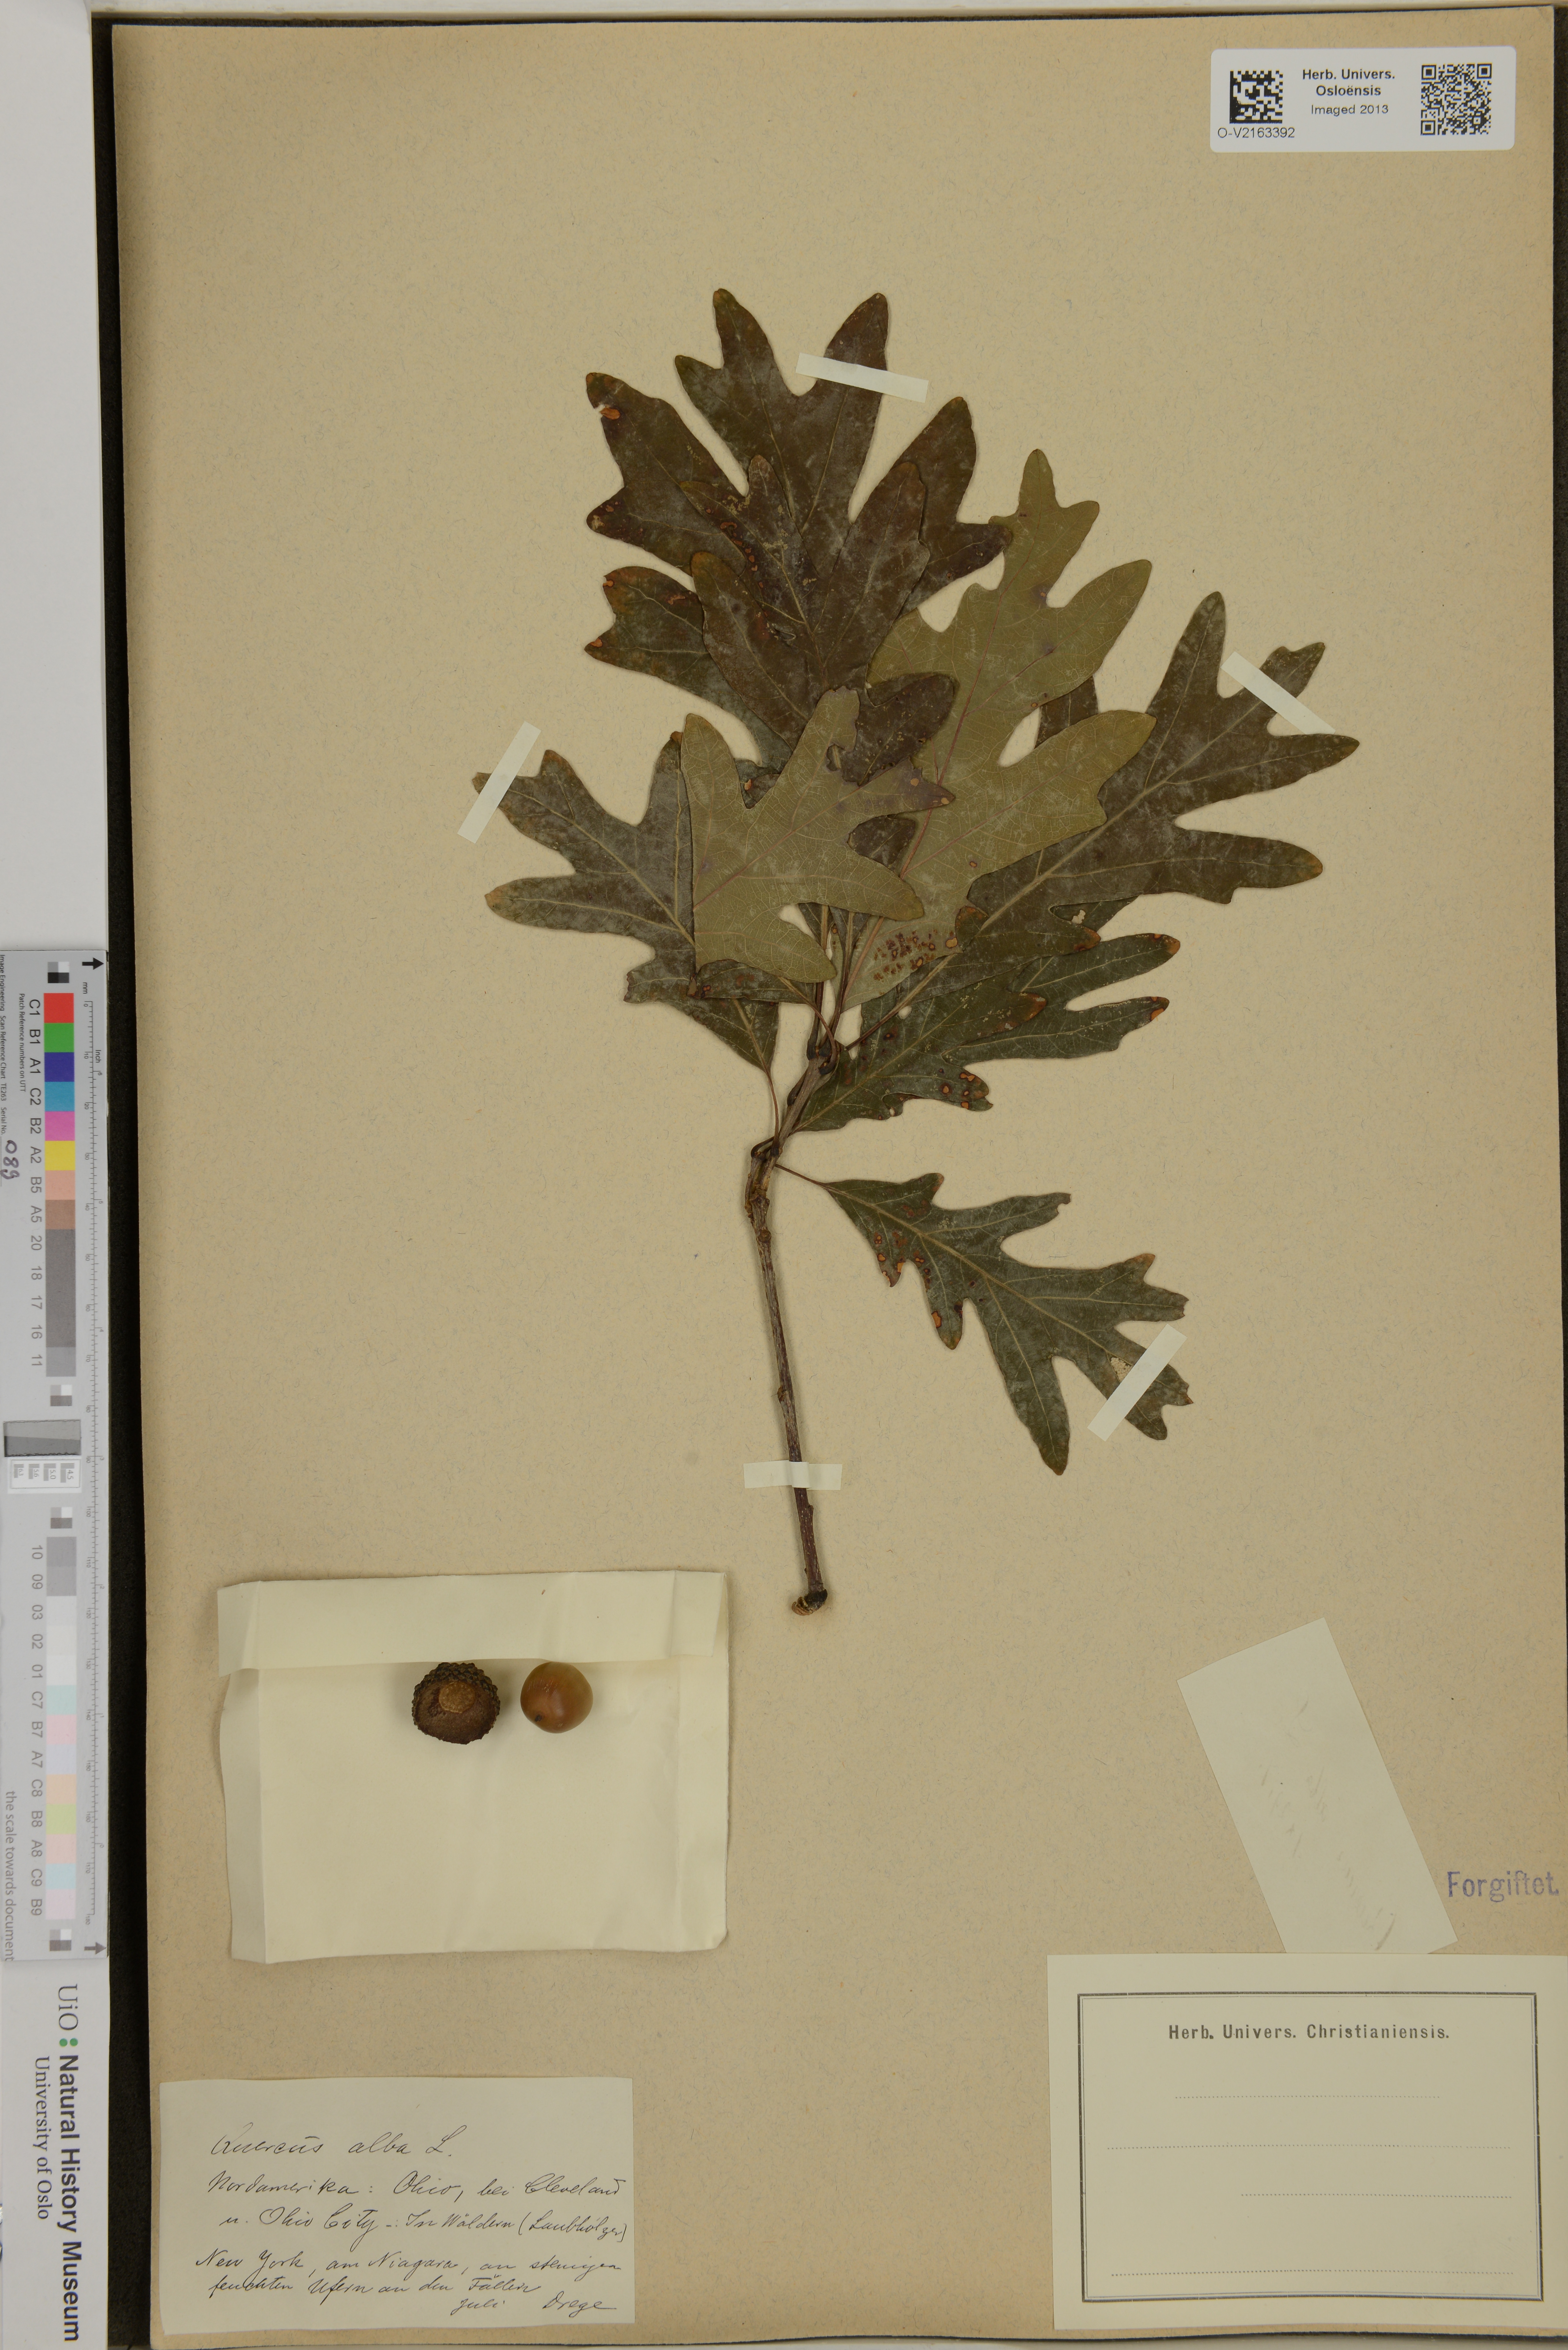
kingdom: Plantae
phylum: Tracheophyta
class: Magnoliopsida
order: Fagales
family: Fagaceae
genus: Quercus
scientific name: Quercus alba
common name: White oak
